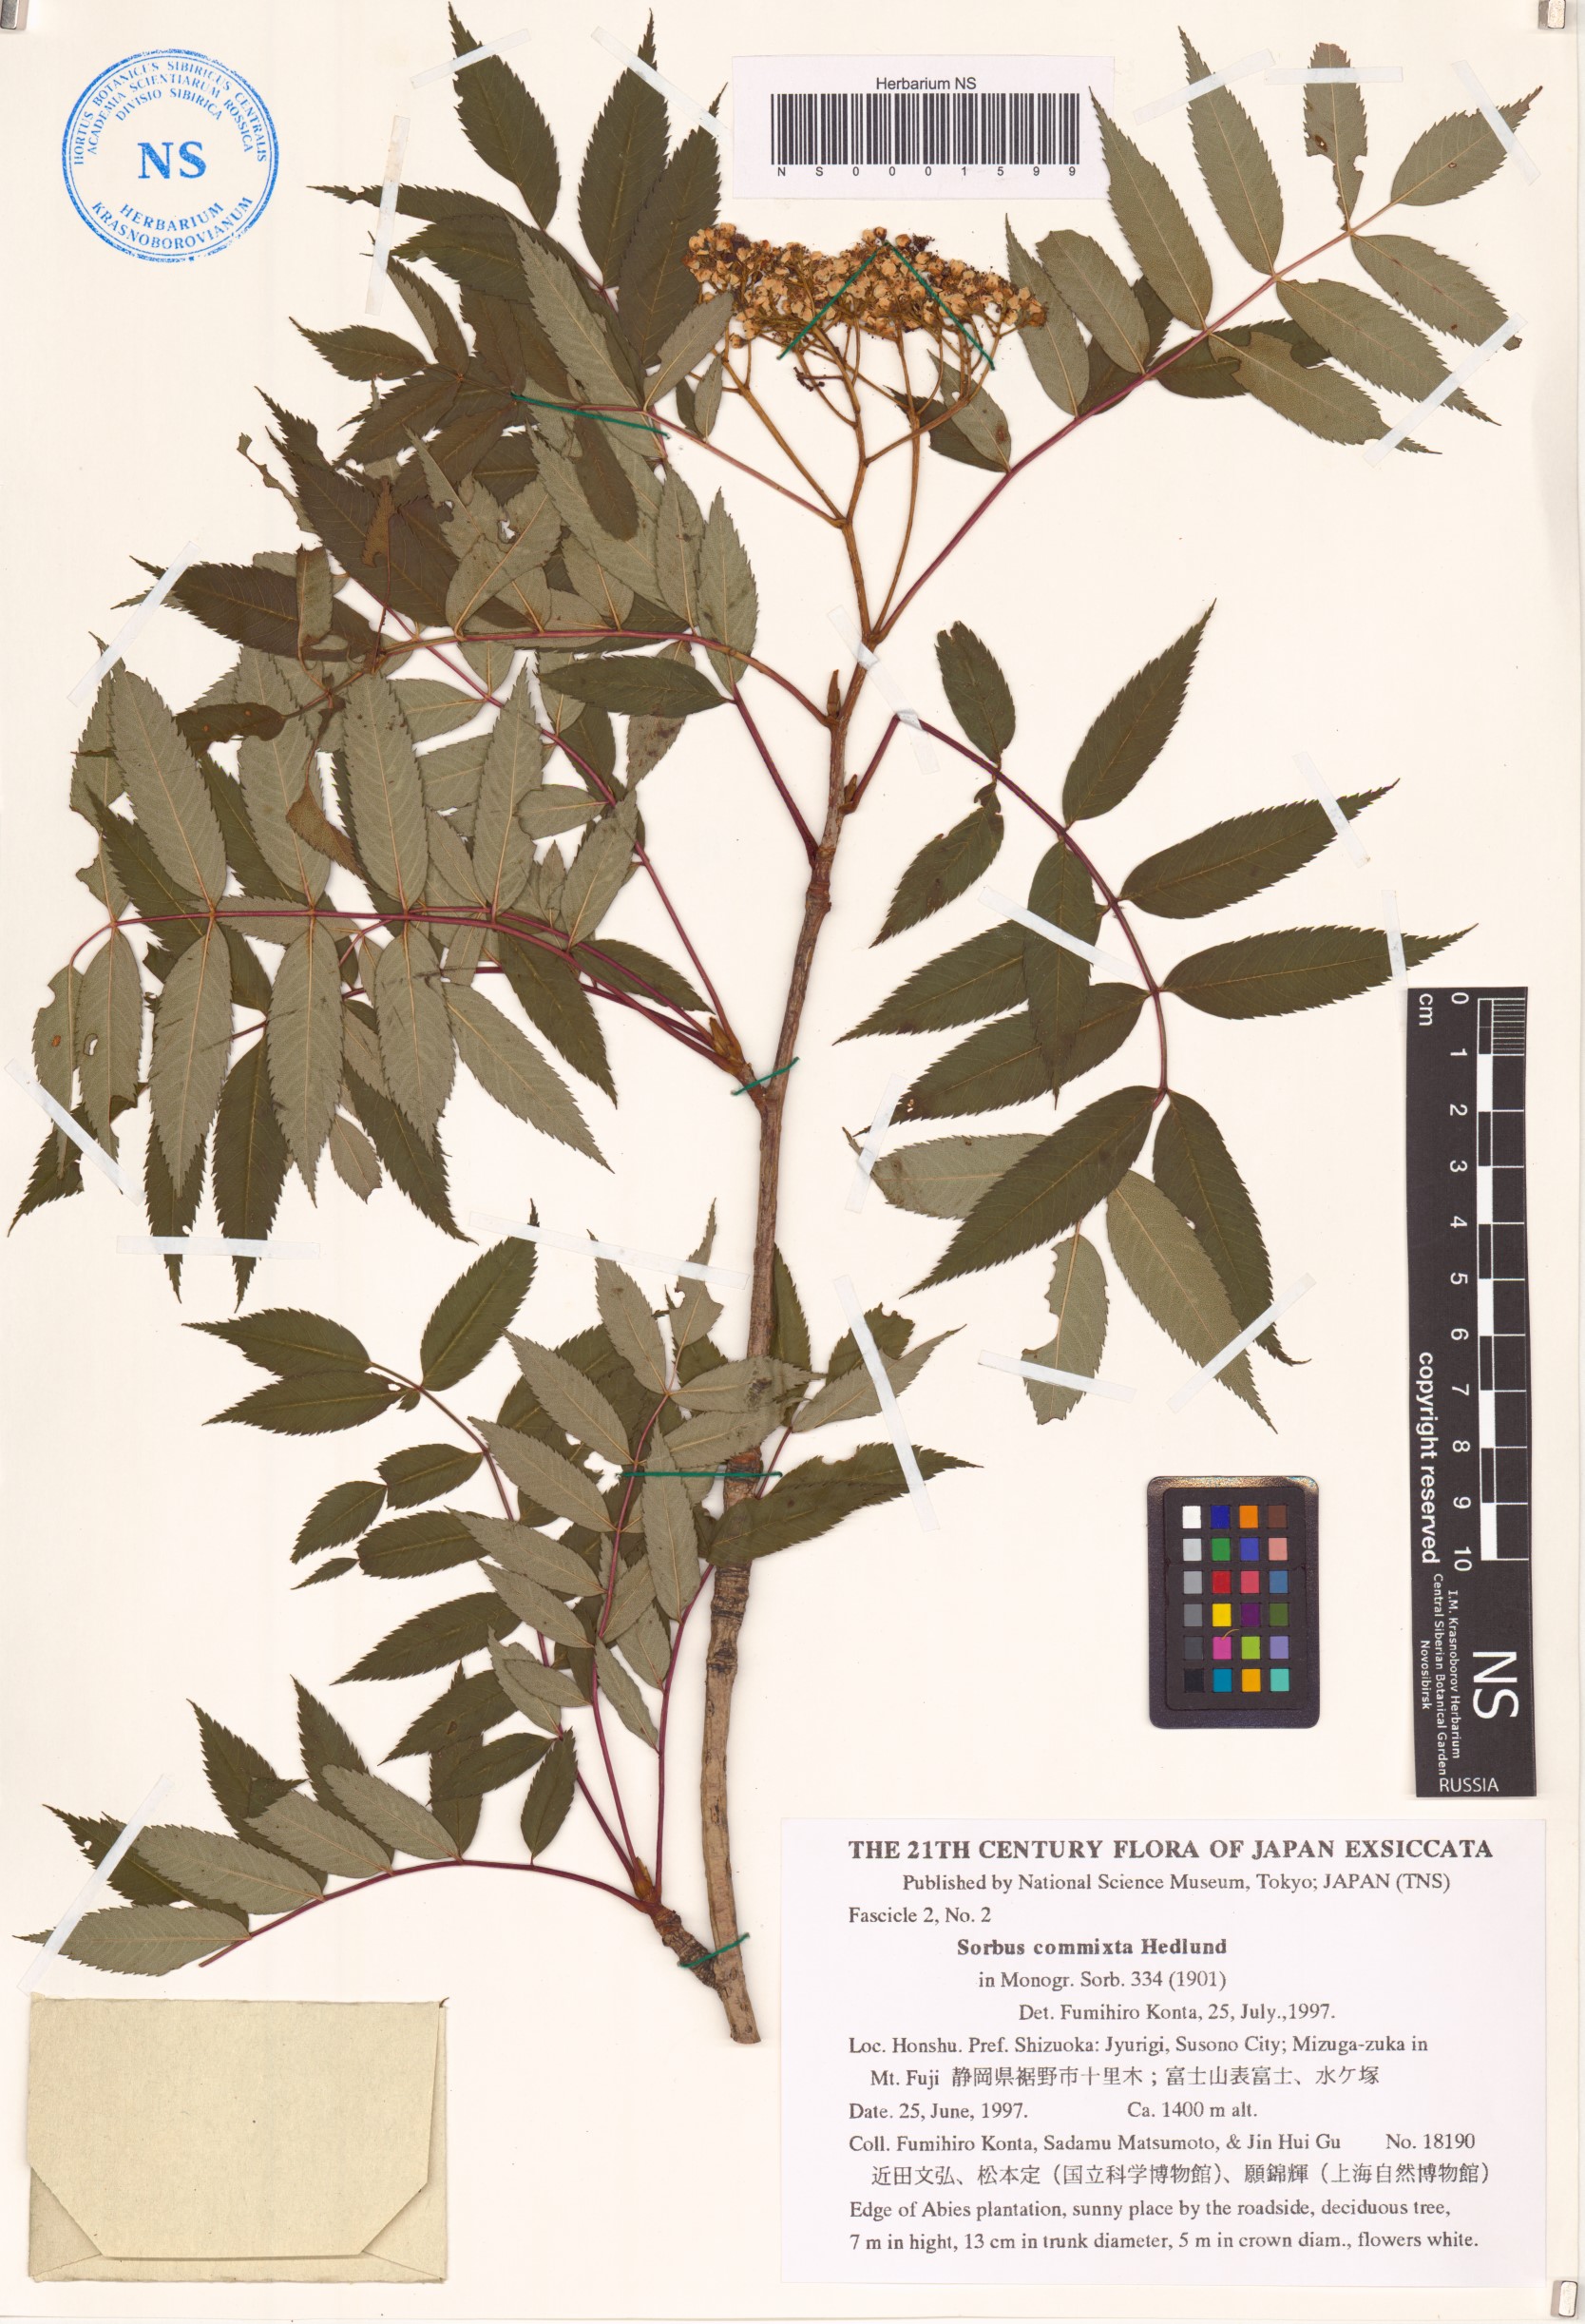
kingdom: Plantae
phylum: Tracheophyta
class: Magnoliopsida
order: Rosales
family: Rosaceae
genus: Sorbus
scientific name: Sorbus commixta
